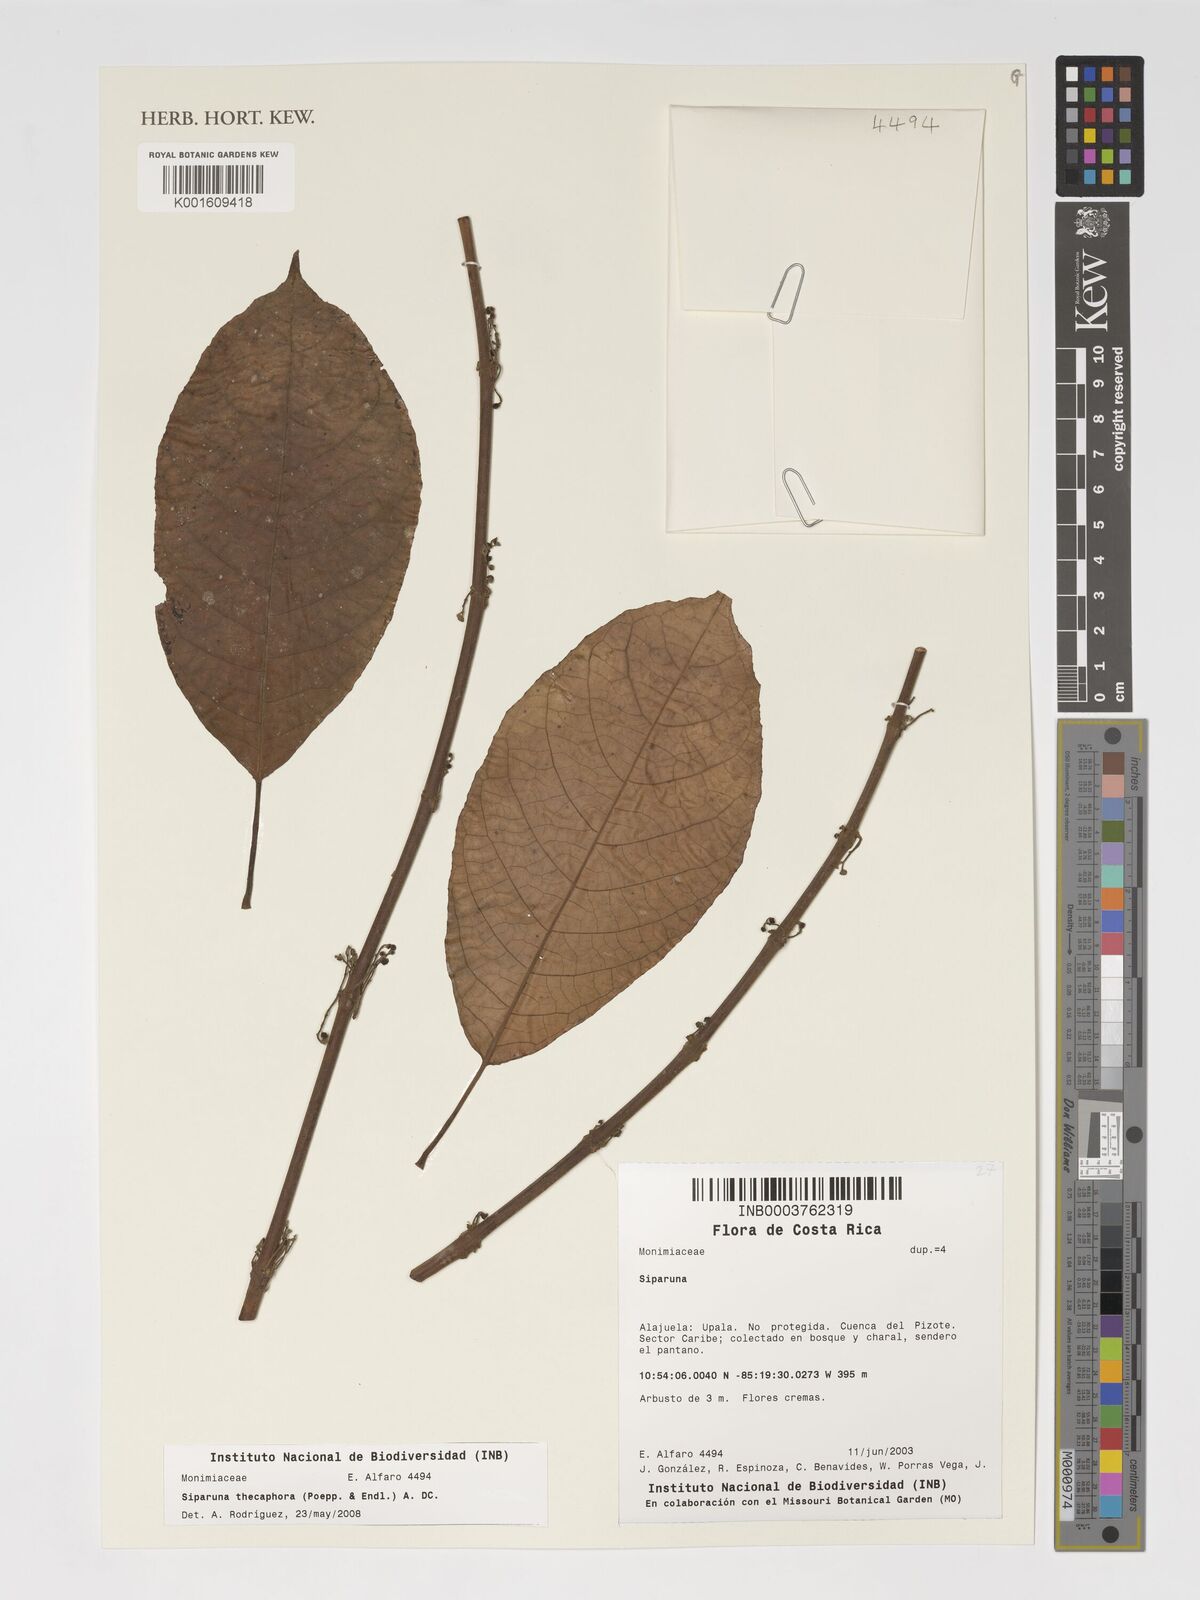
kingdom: Plantae
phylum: Tracheophyta
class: Magnoliopsida
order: Laurales
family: Siparunaceae
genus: Siparuna
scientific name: Siparuna thecaphora
